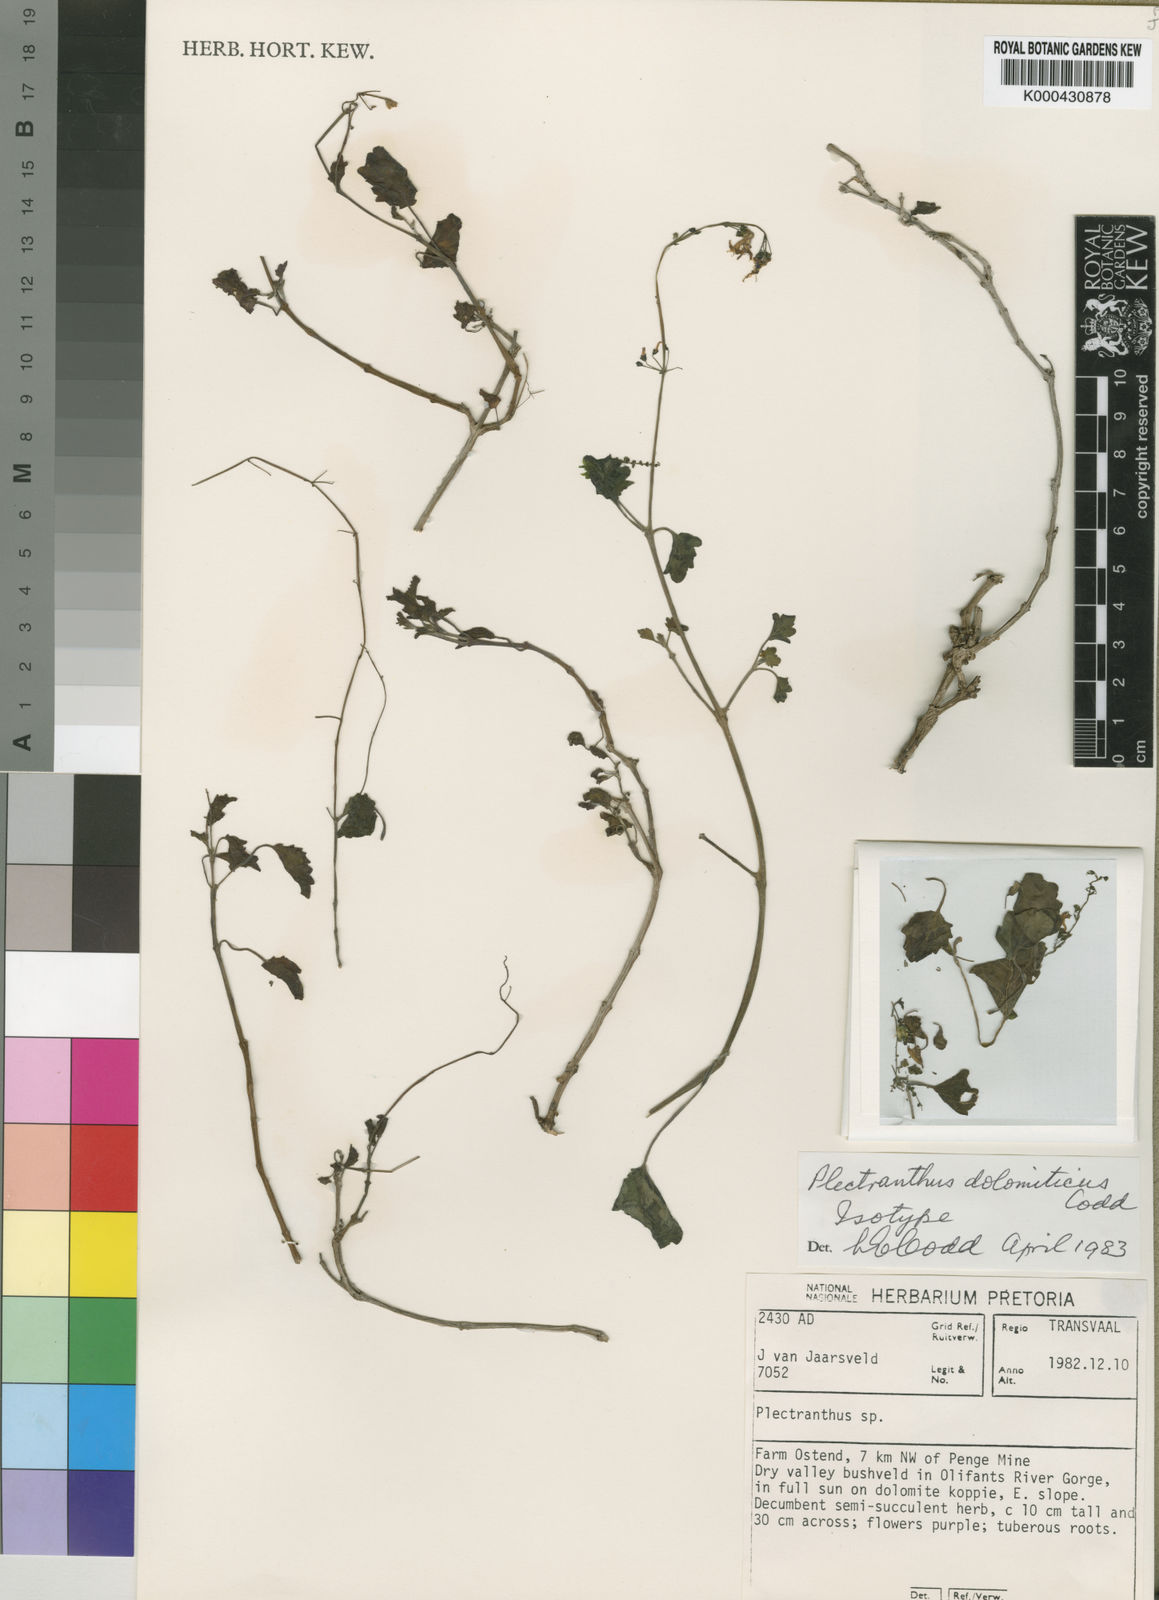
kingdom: Plantae
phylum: Tracheophyta
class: Magnoliopsida
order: Lamiales
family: Lamiaceae
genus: Equilabium
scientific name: Equilabium dolomiticum
